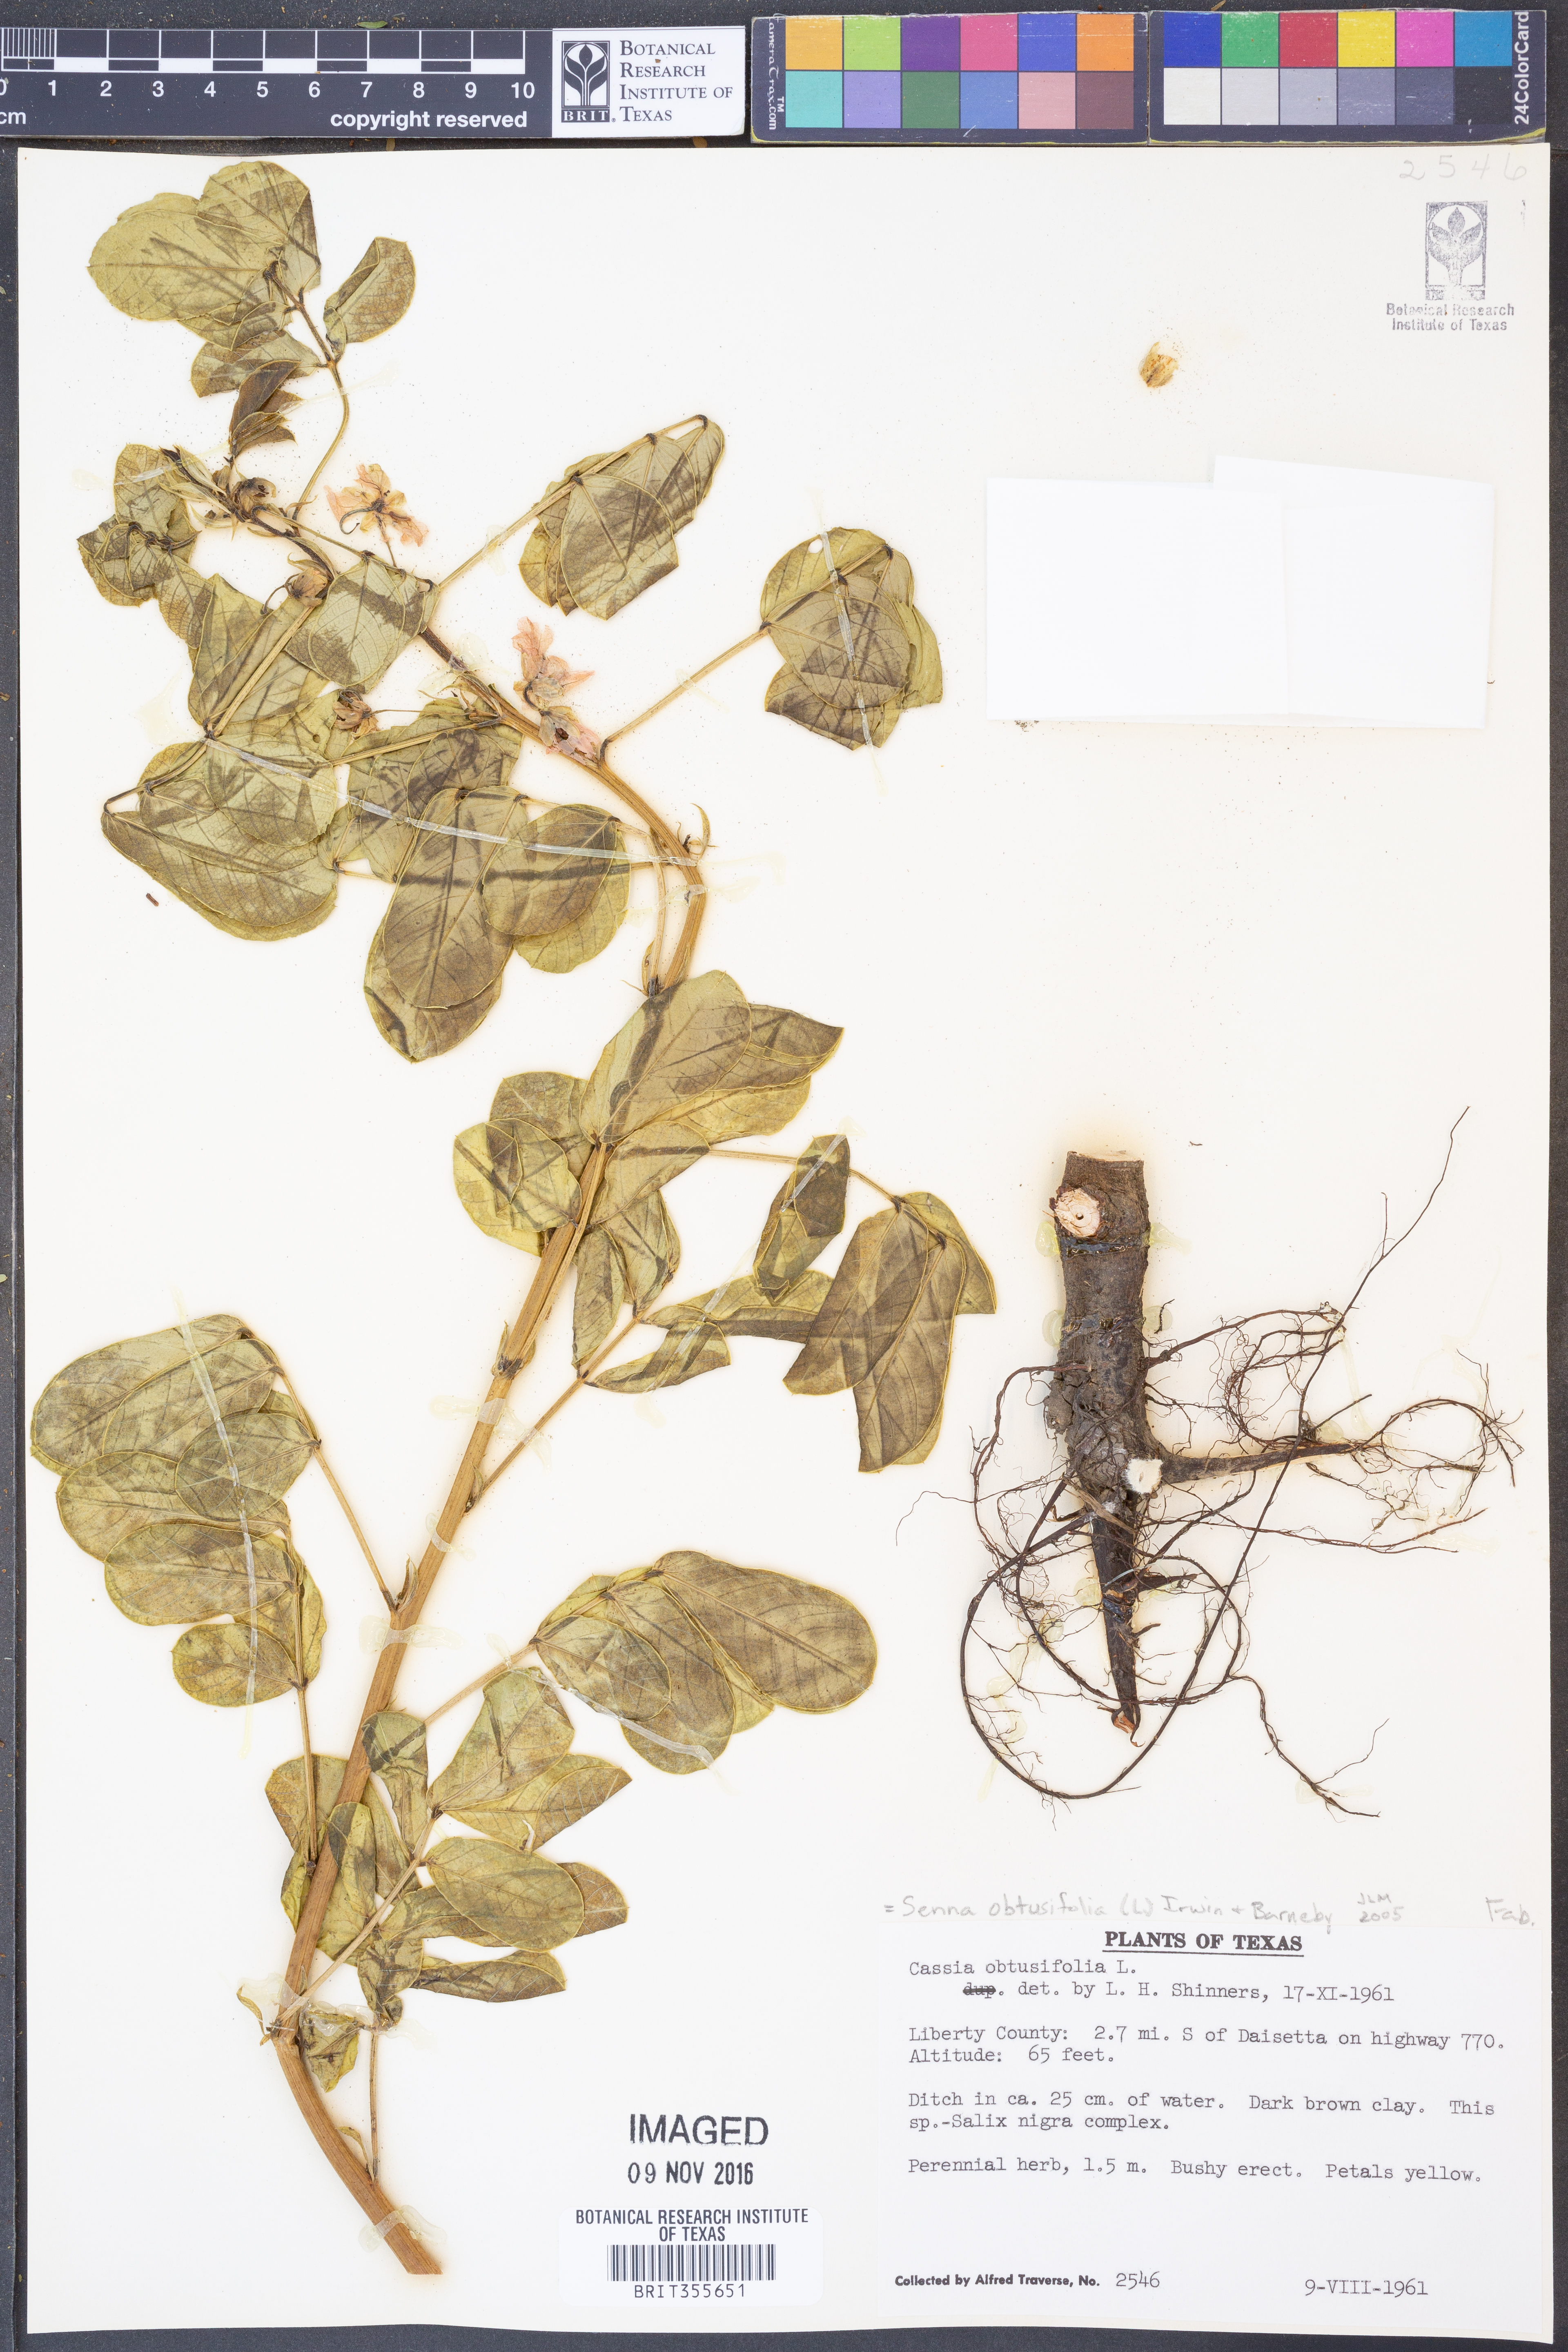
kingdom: Plantae
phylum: Tracheophyta
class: Magnoliopsida
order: Fabales
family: Fabaceae
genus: Senna
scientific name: Senna obtusifolia
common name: Java-bean
